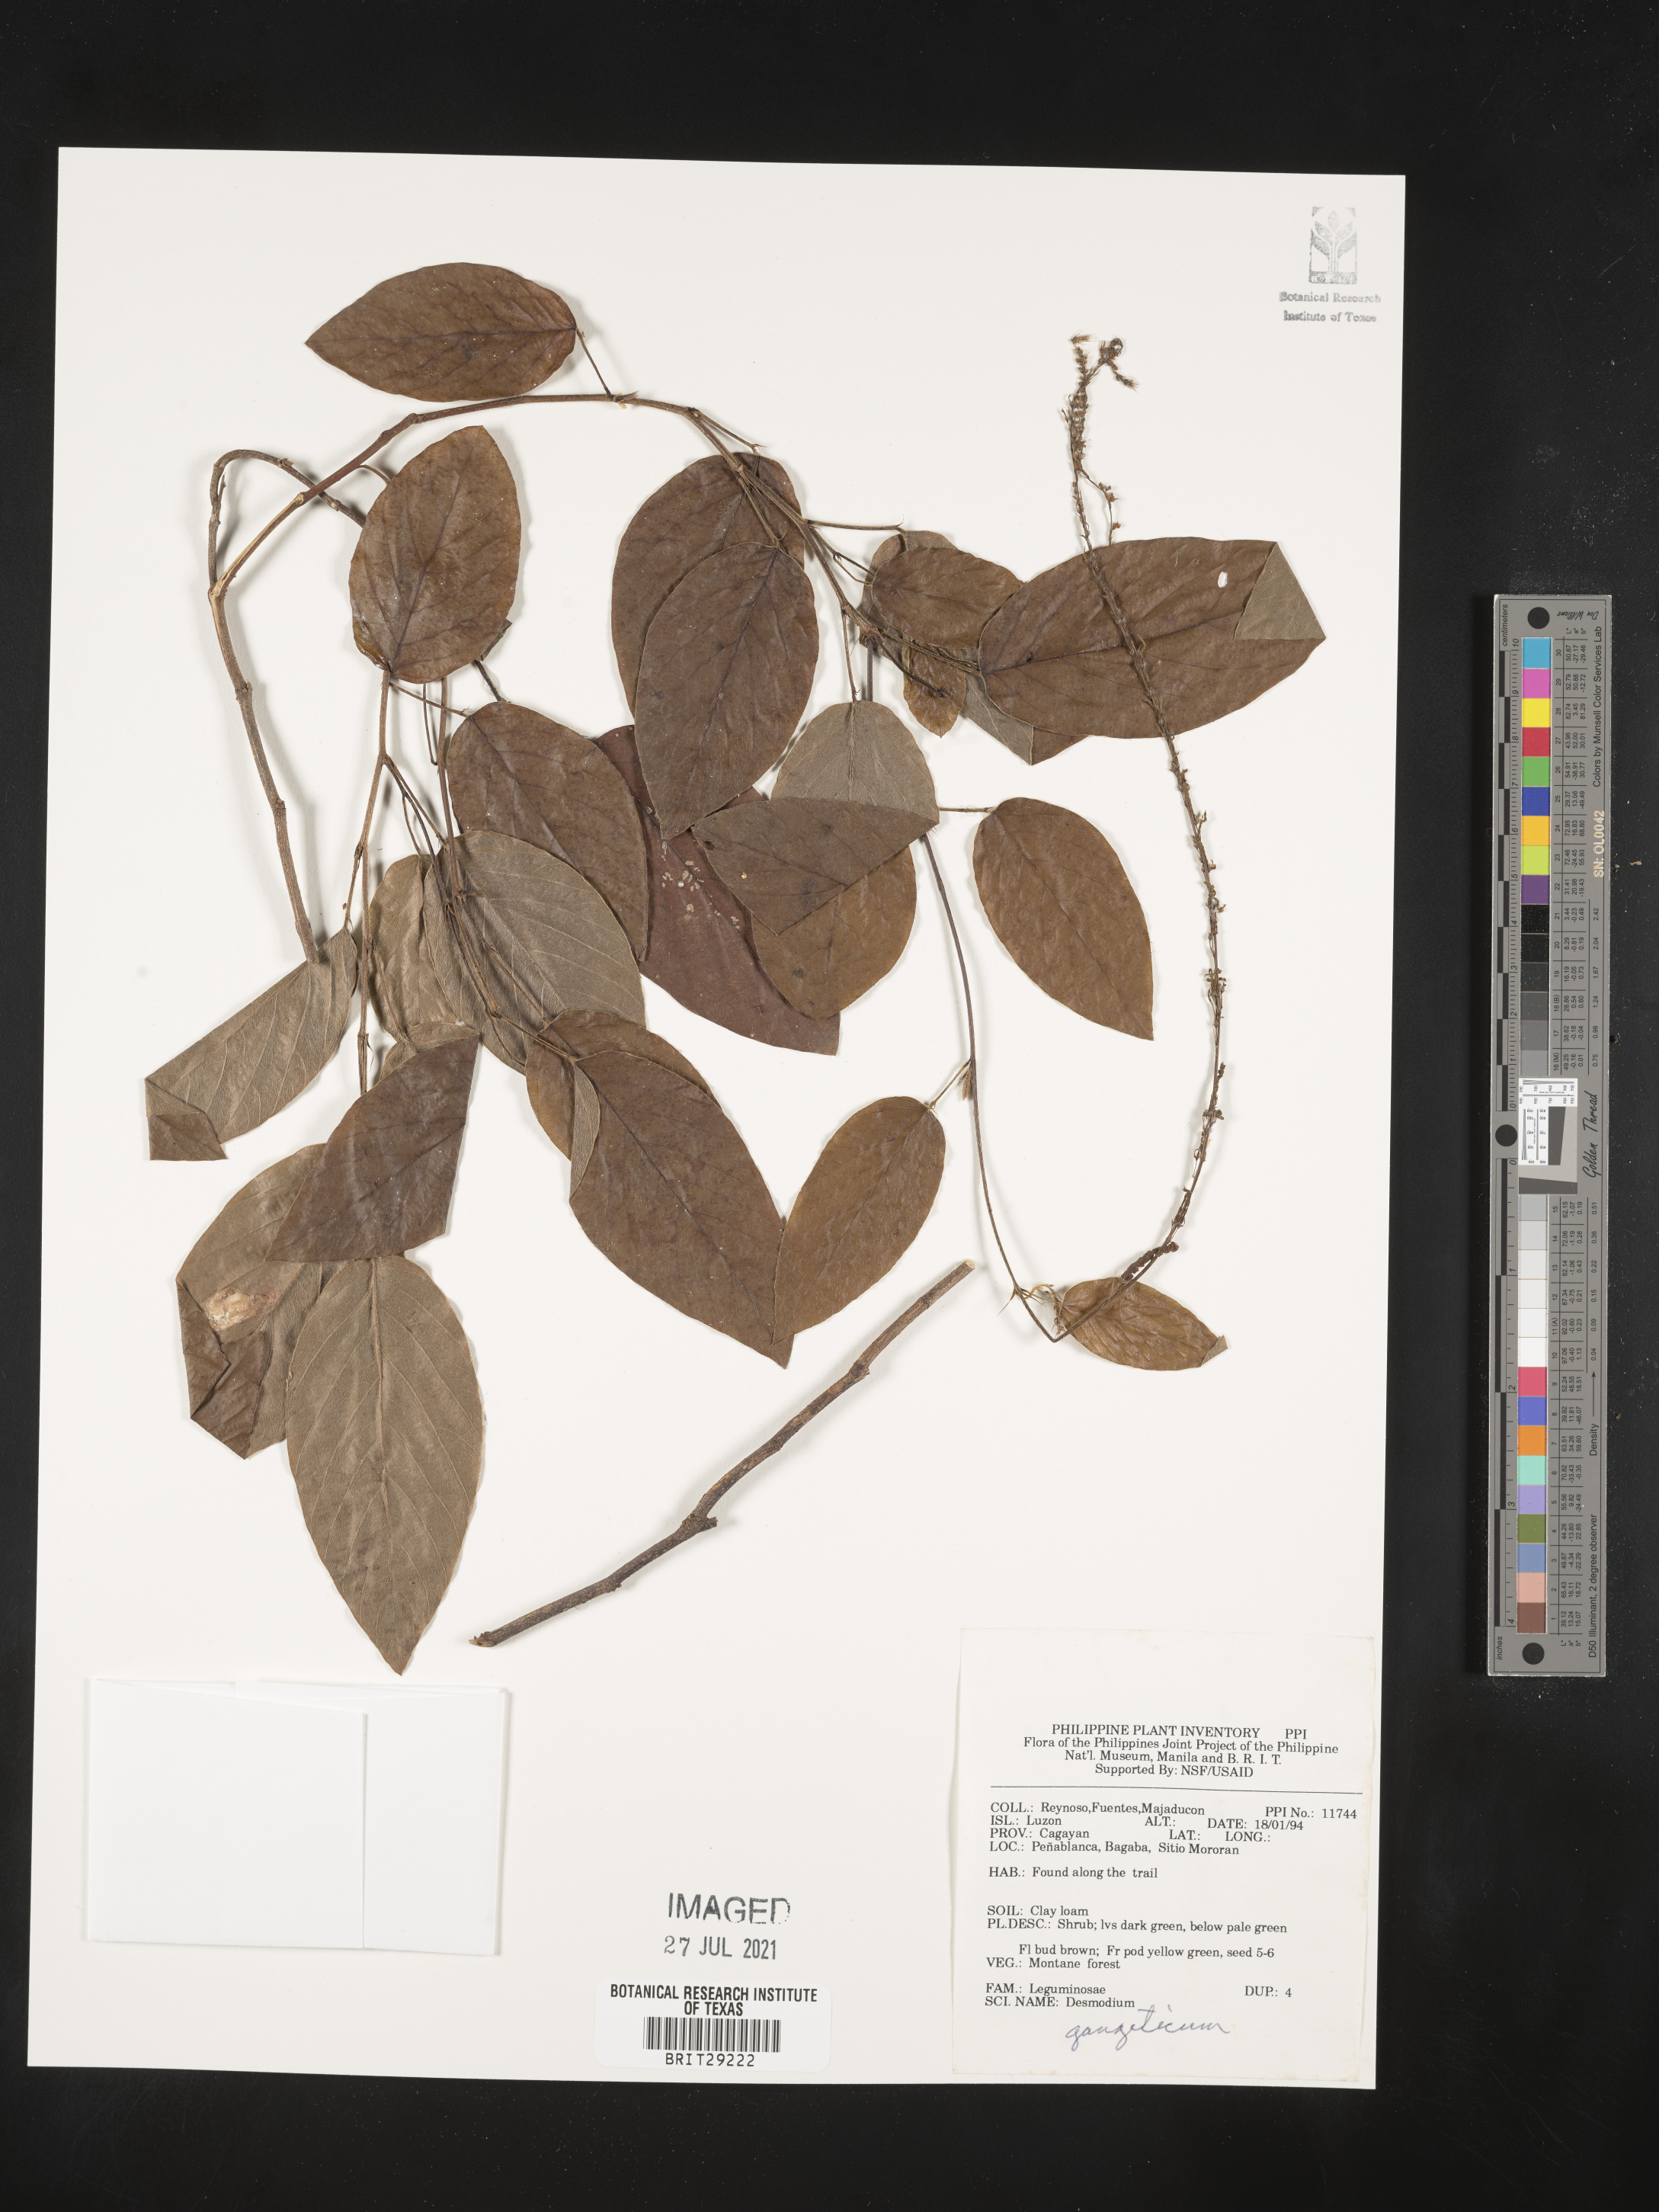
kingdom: Plantae
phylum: Tracheophyta
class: Magnoliopsida
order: Fabales
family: Fabaceae
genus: Pleurolobus
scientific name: Pleurolobus gangeticus
